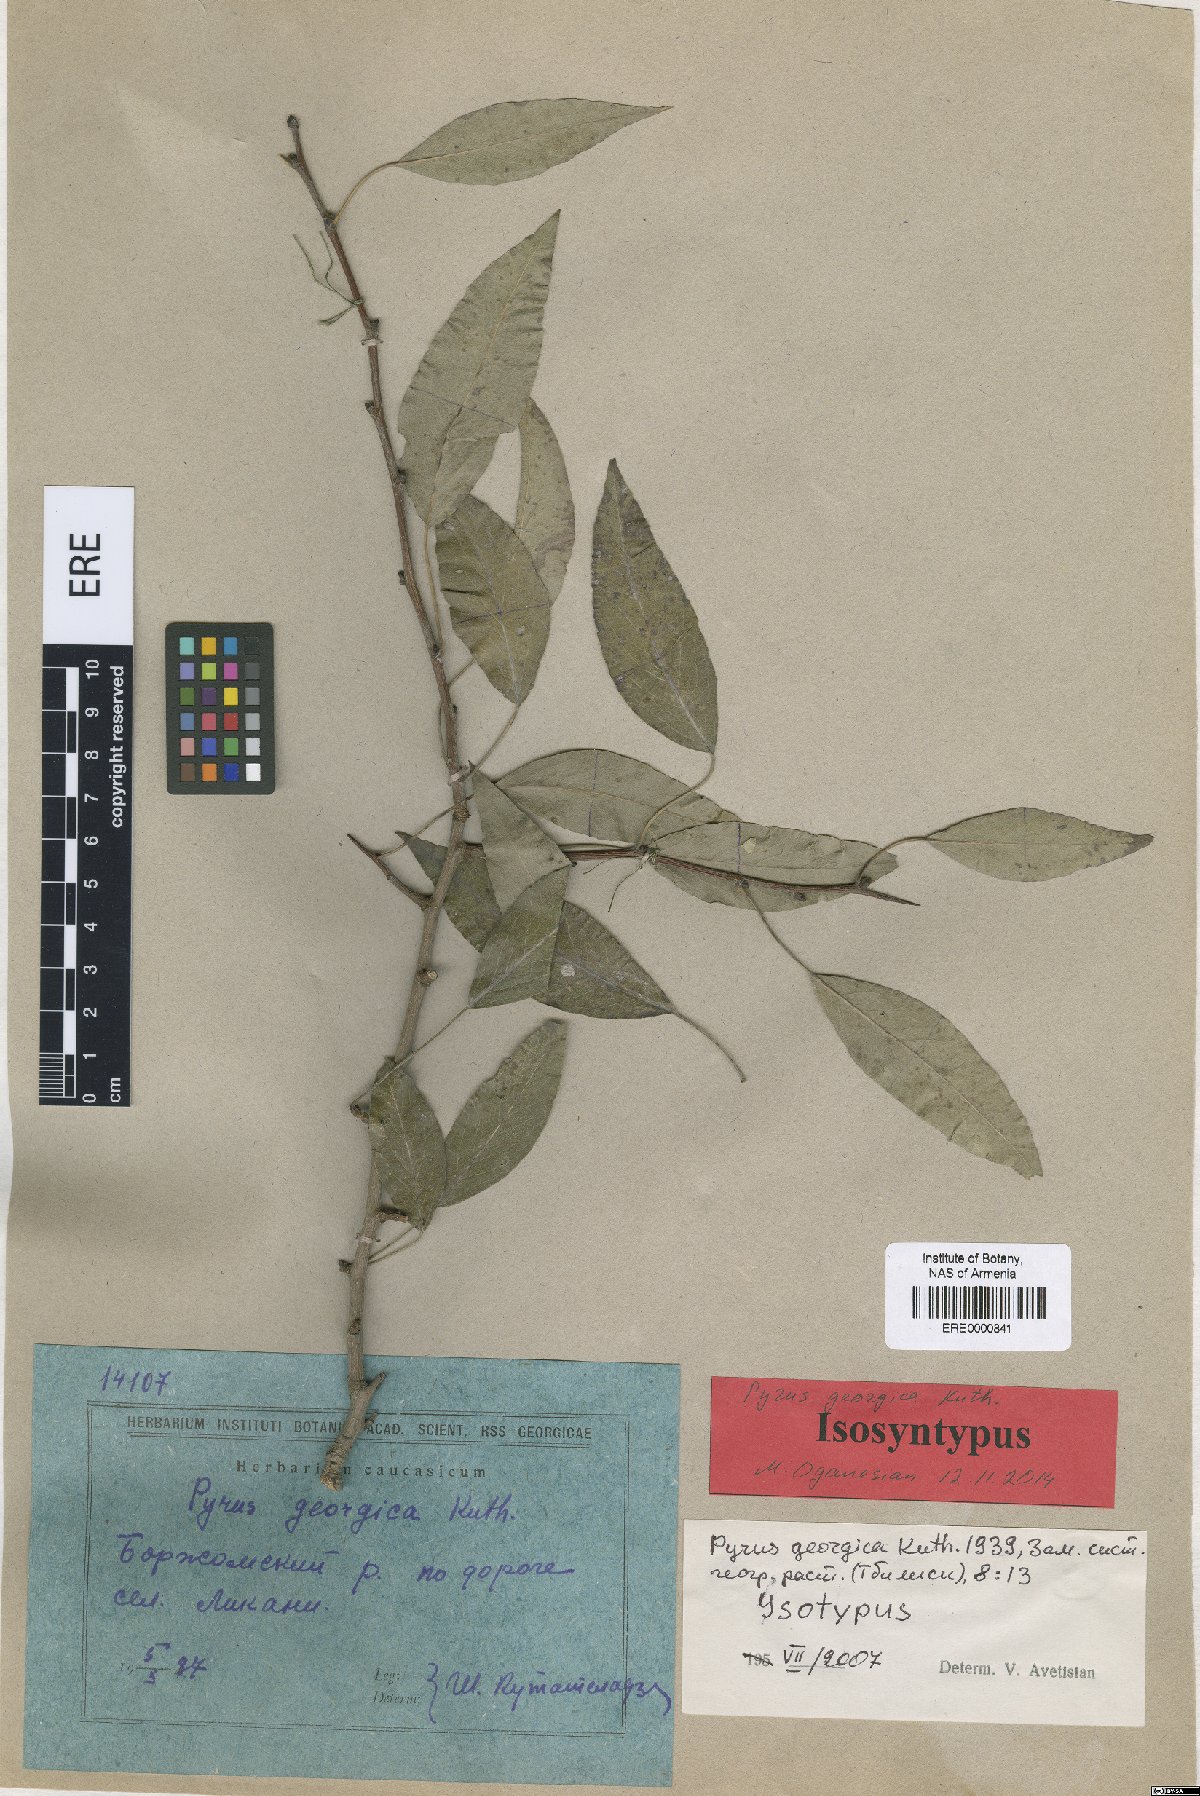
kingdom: Plantae
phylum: Tracheophyta
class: Magnoliopsida
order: Rosales
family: Rosaceae
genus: Pyrus
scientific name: Pyrus georgica
